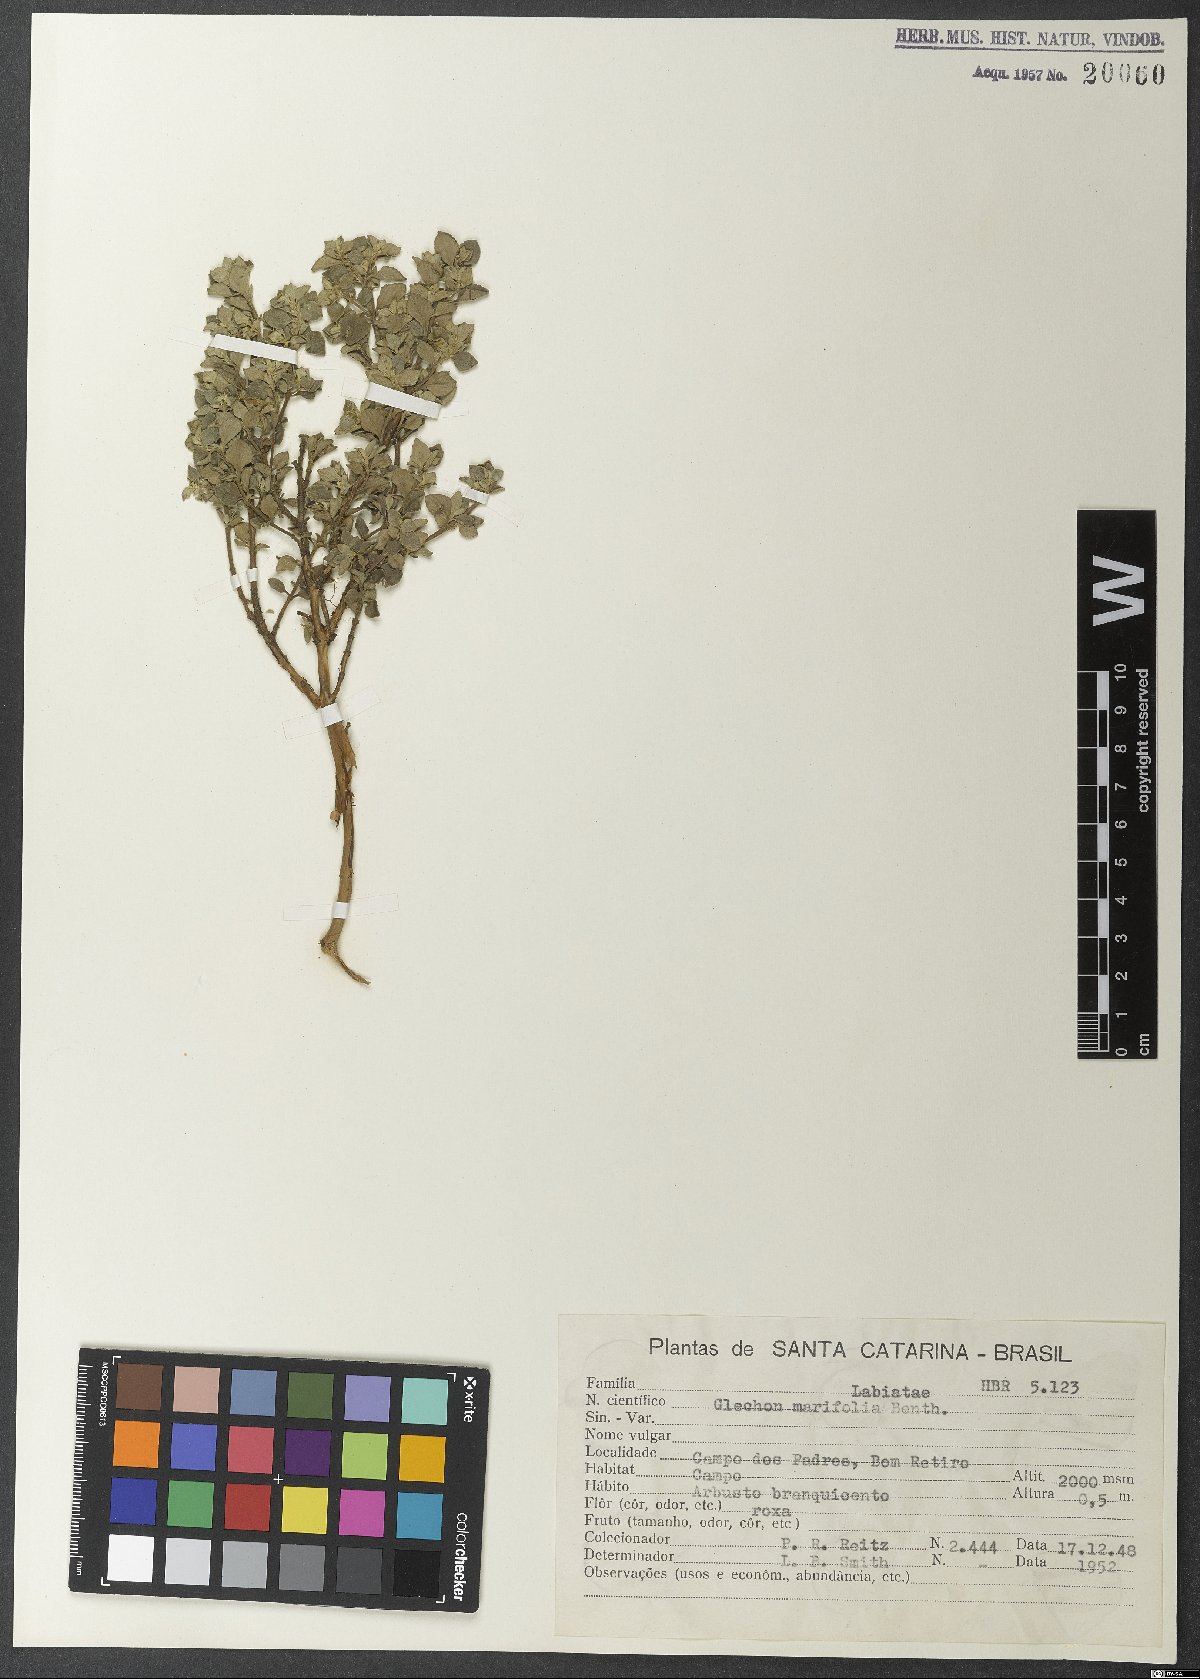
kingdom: Plantae
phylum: Tracheophyta
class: Magnoliopsida
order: Lamiales
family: Lamiaceae
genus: Glechon
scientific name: Glechon marifolia
